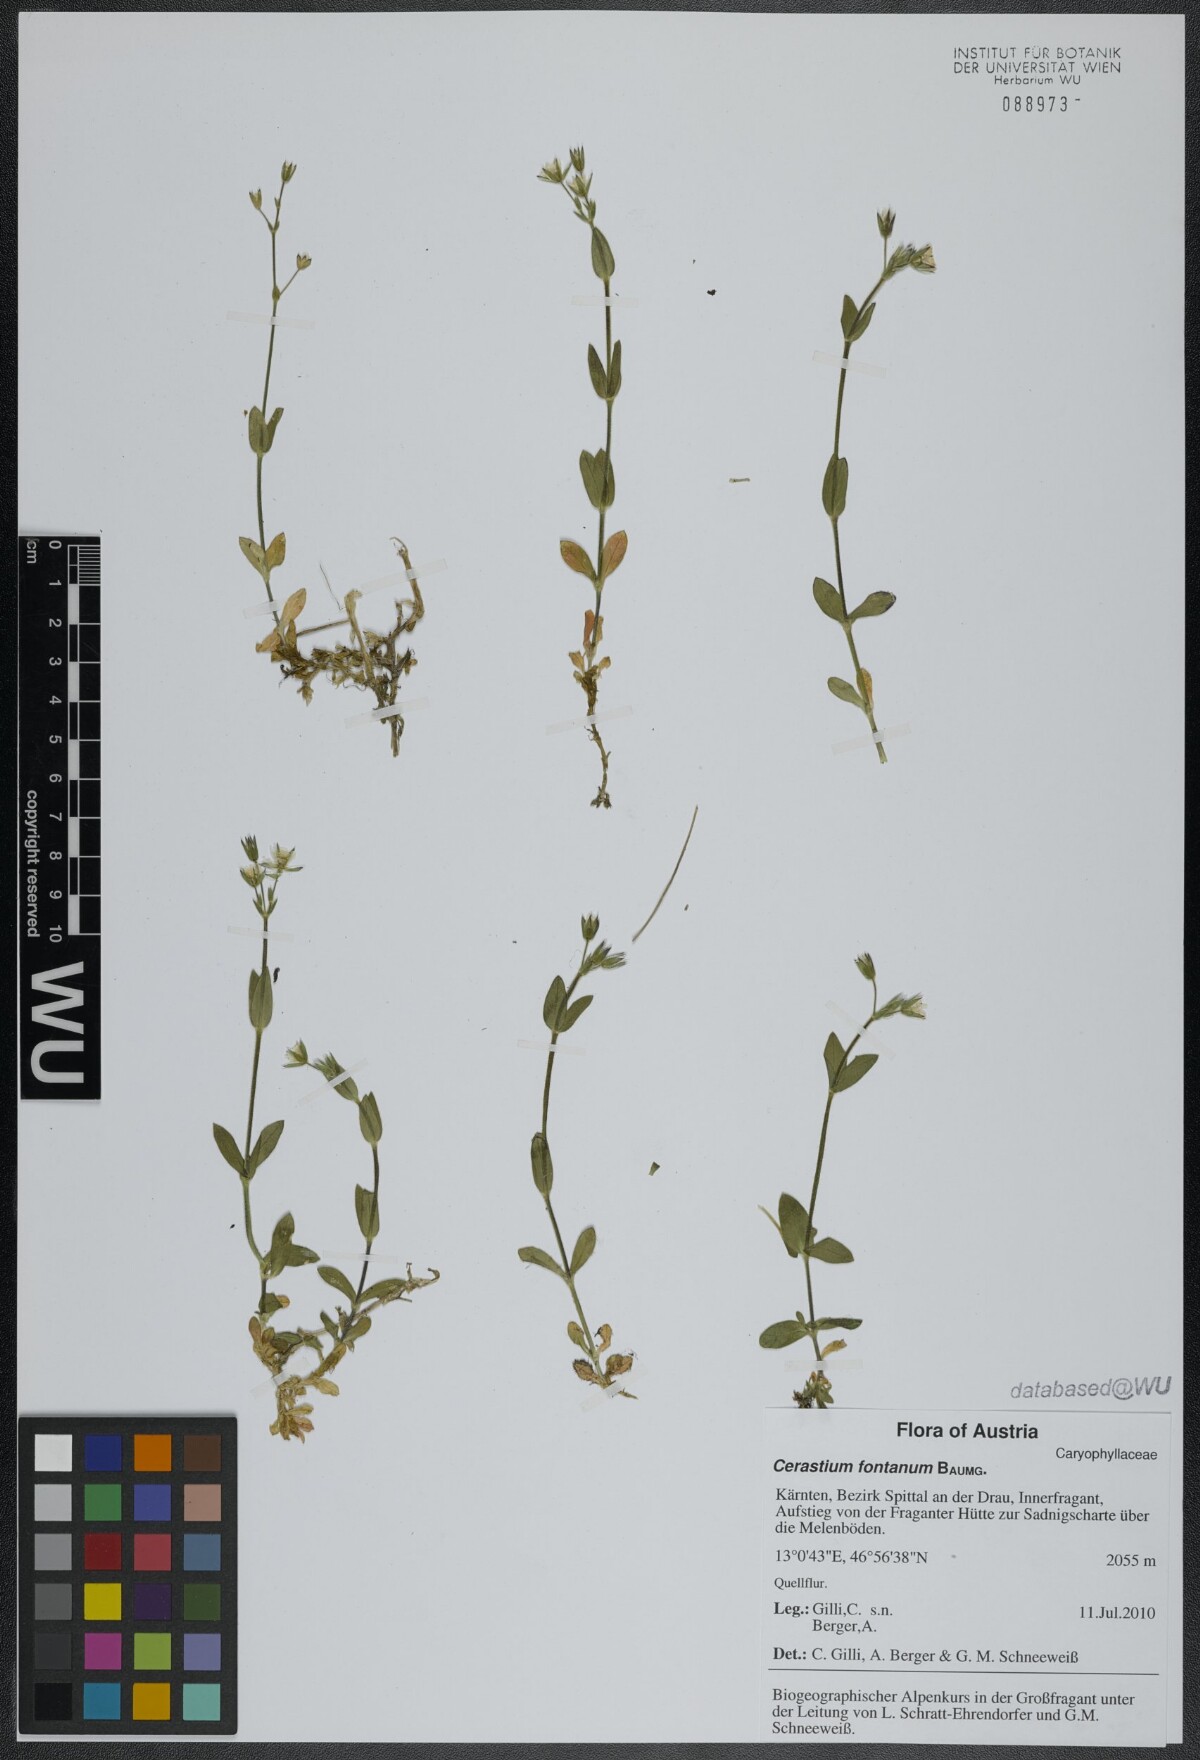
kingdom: Plantae
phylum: Tracheophyta
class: Magnoliopsida
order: Caryophyllales
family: Caryophyllaceae
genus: Cerastium
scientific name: Cerastium fontanum
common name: Common mouse-ear
